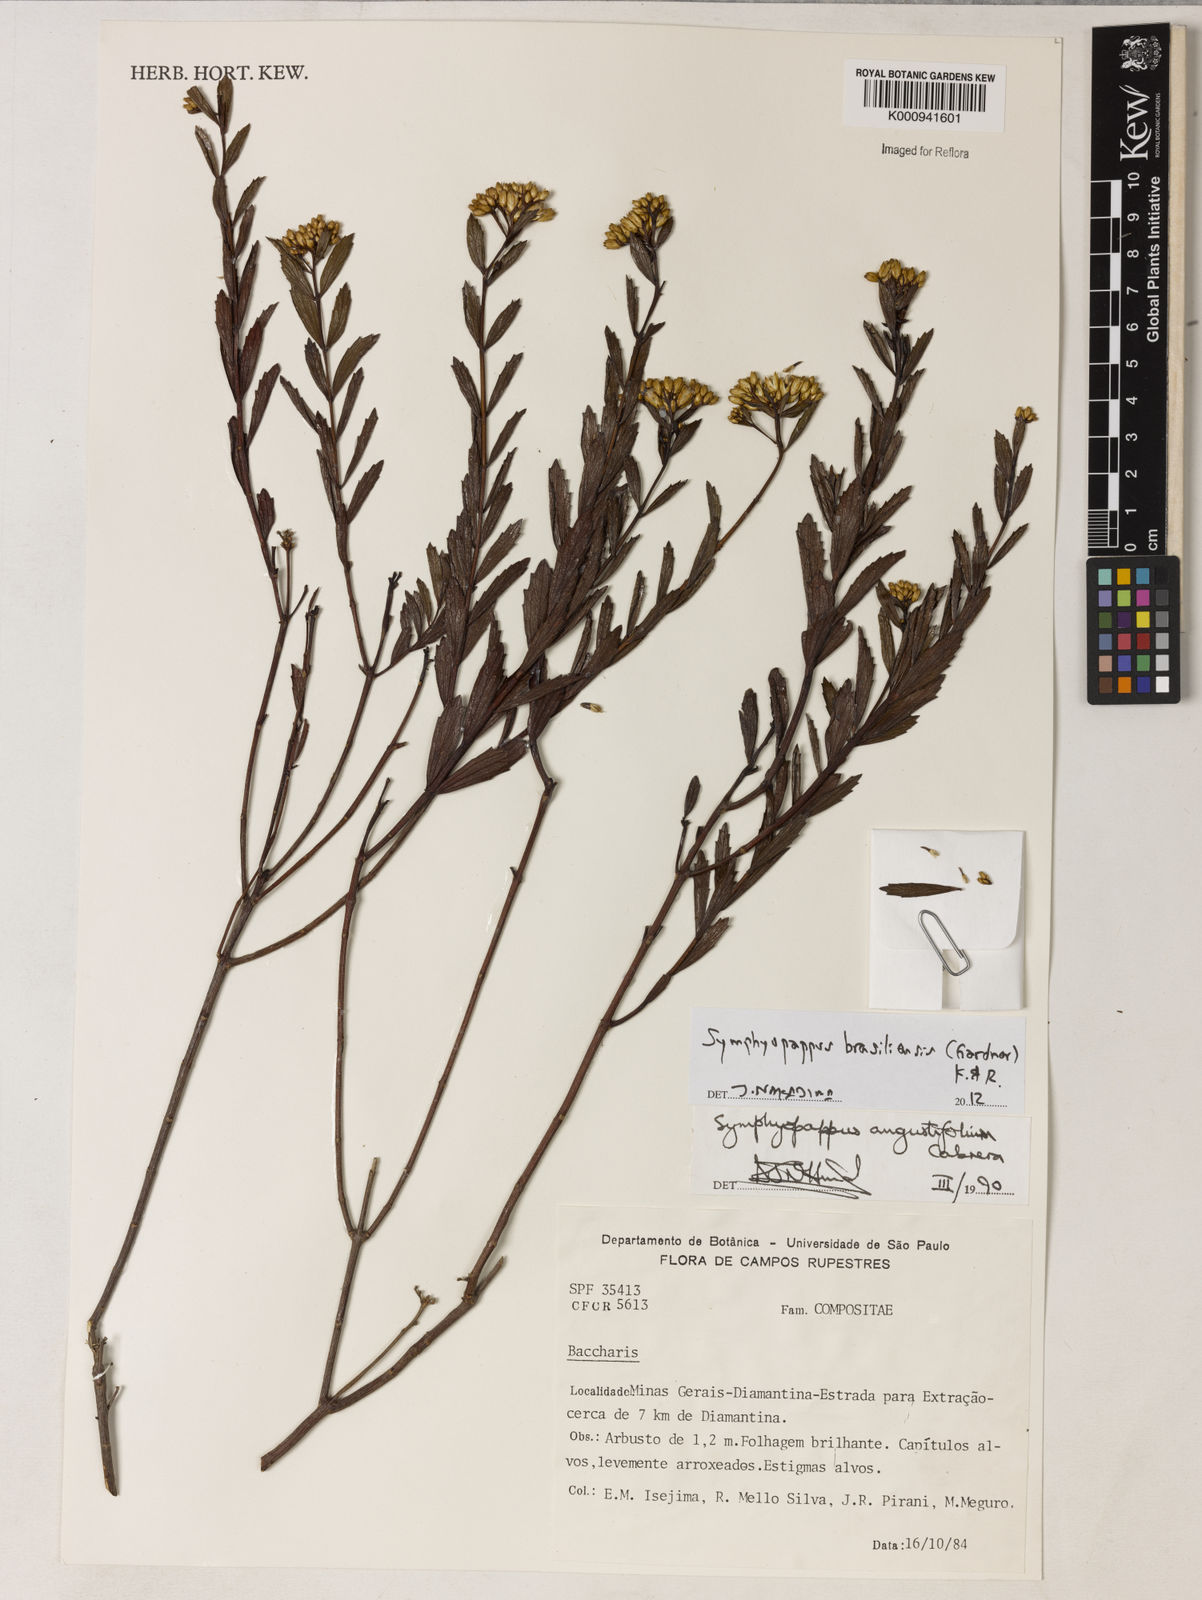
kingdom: Plantae
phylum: Tracheophyta
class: Magnoliopsida
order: Asterales
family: Asteraceae
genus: Symphyopappus
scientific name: Symphyopappus brasiliensis
